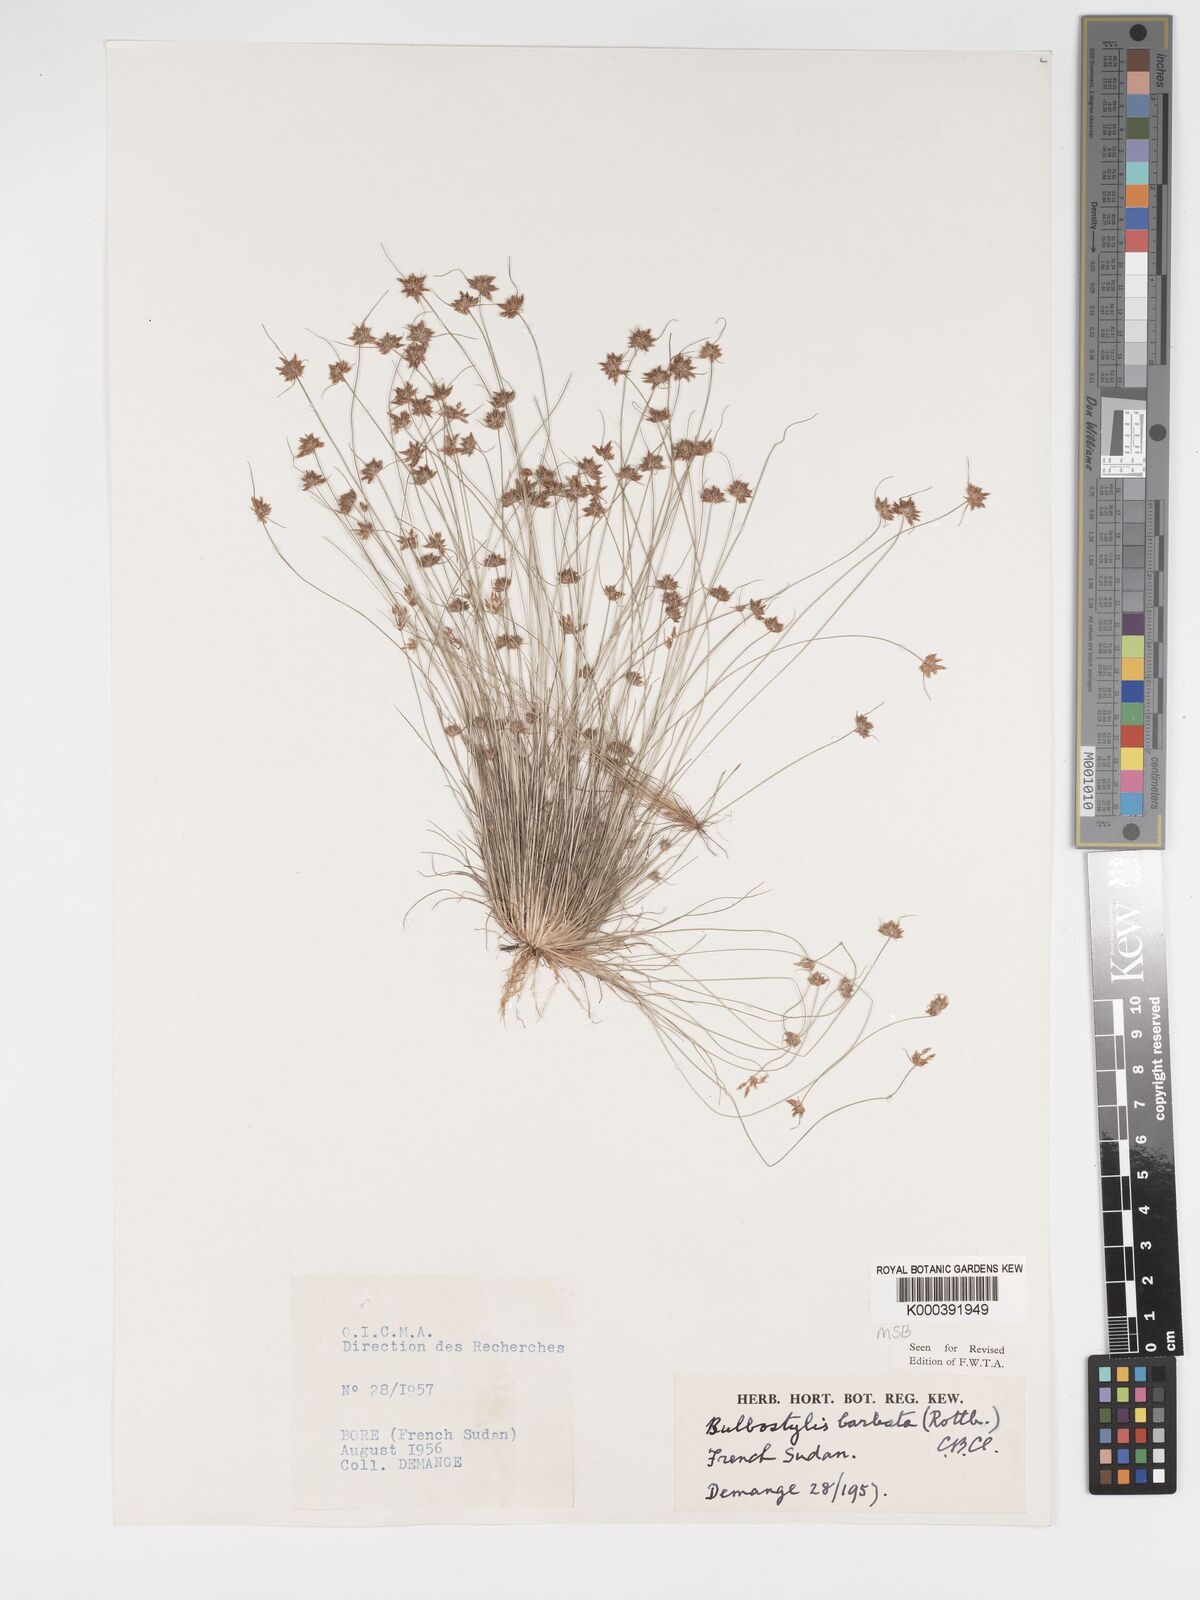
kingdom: Plantae
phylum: Tracheophyta
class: Liliopsida
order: Poales
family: Cyperaceae
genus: Bulbostylis
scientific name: Bulbostylis barbata
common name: Watergrass
